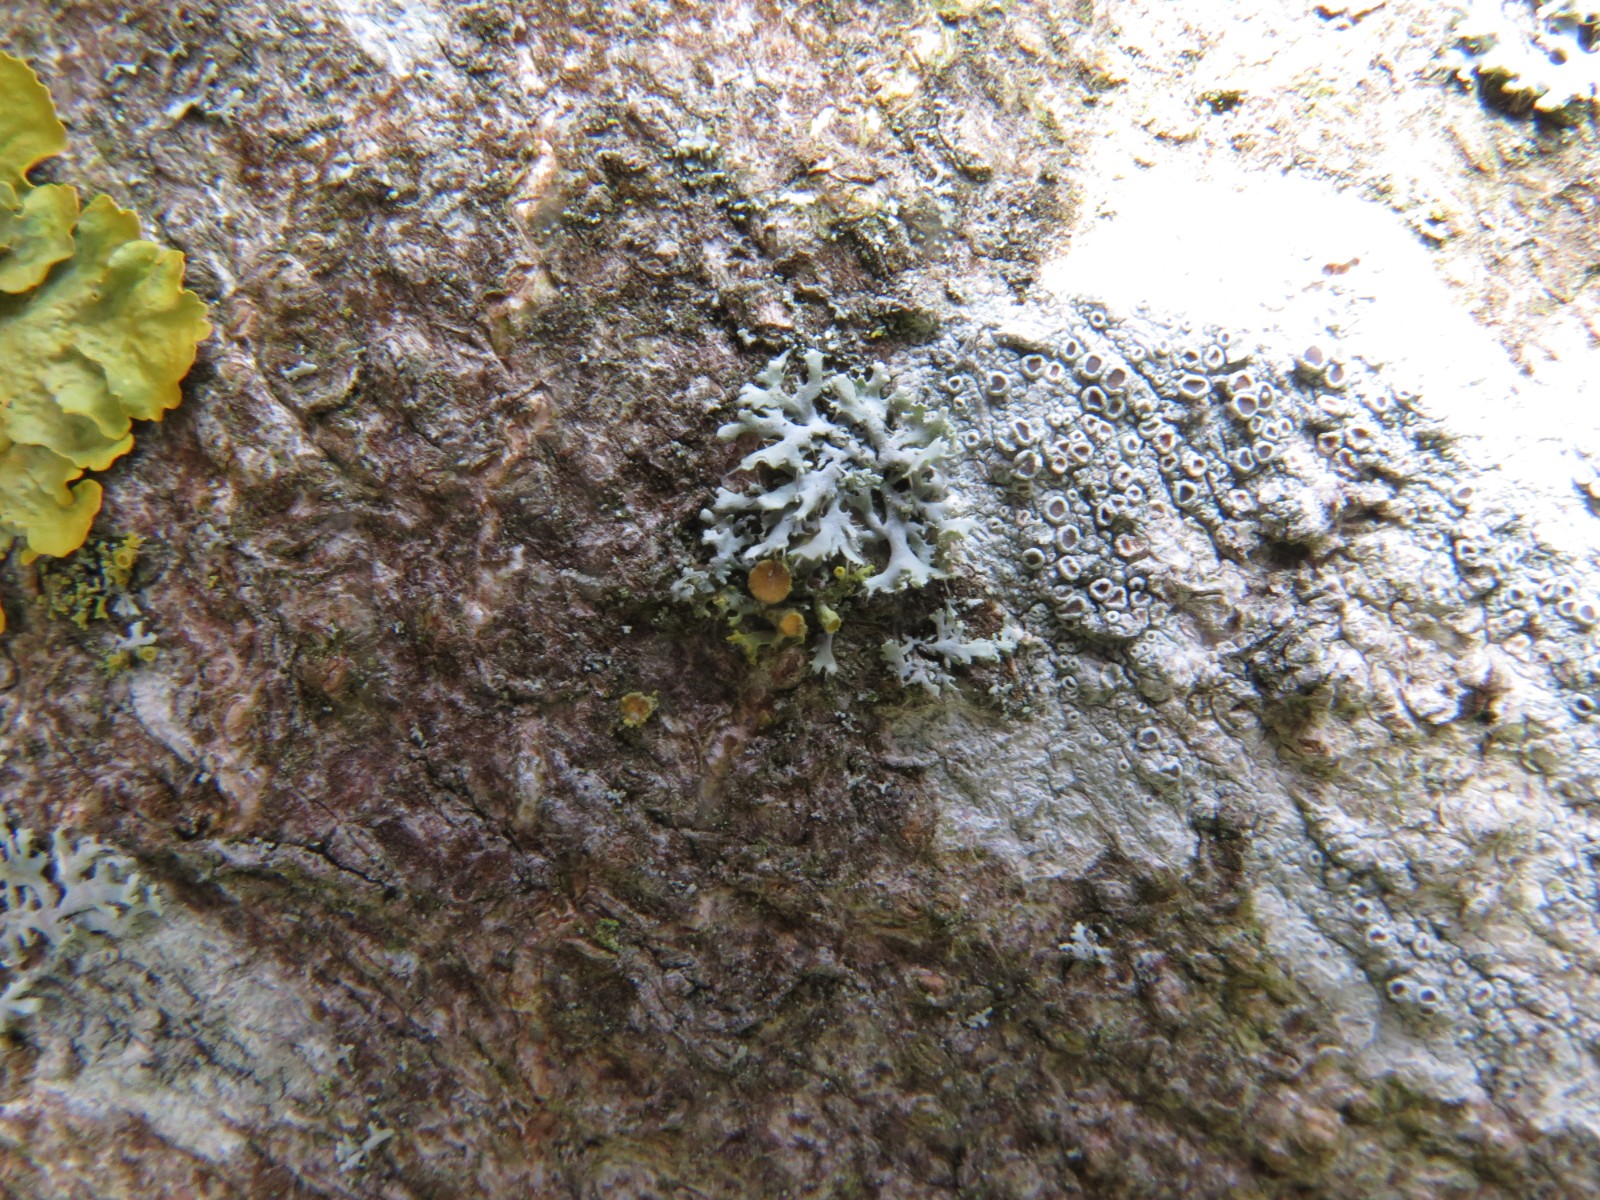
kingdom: Fungi
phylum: Ascomycota
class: Lecanoromycetes
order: Teloschistales
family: Teloschistaceae
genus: Polycauliona
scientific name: Polycauliona polycarpa
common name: mangefrugtet orangelav
